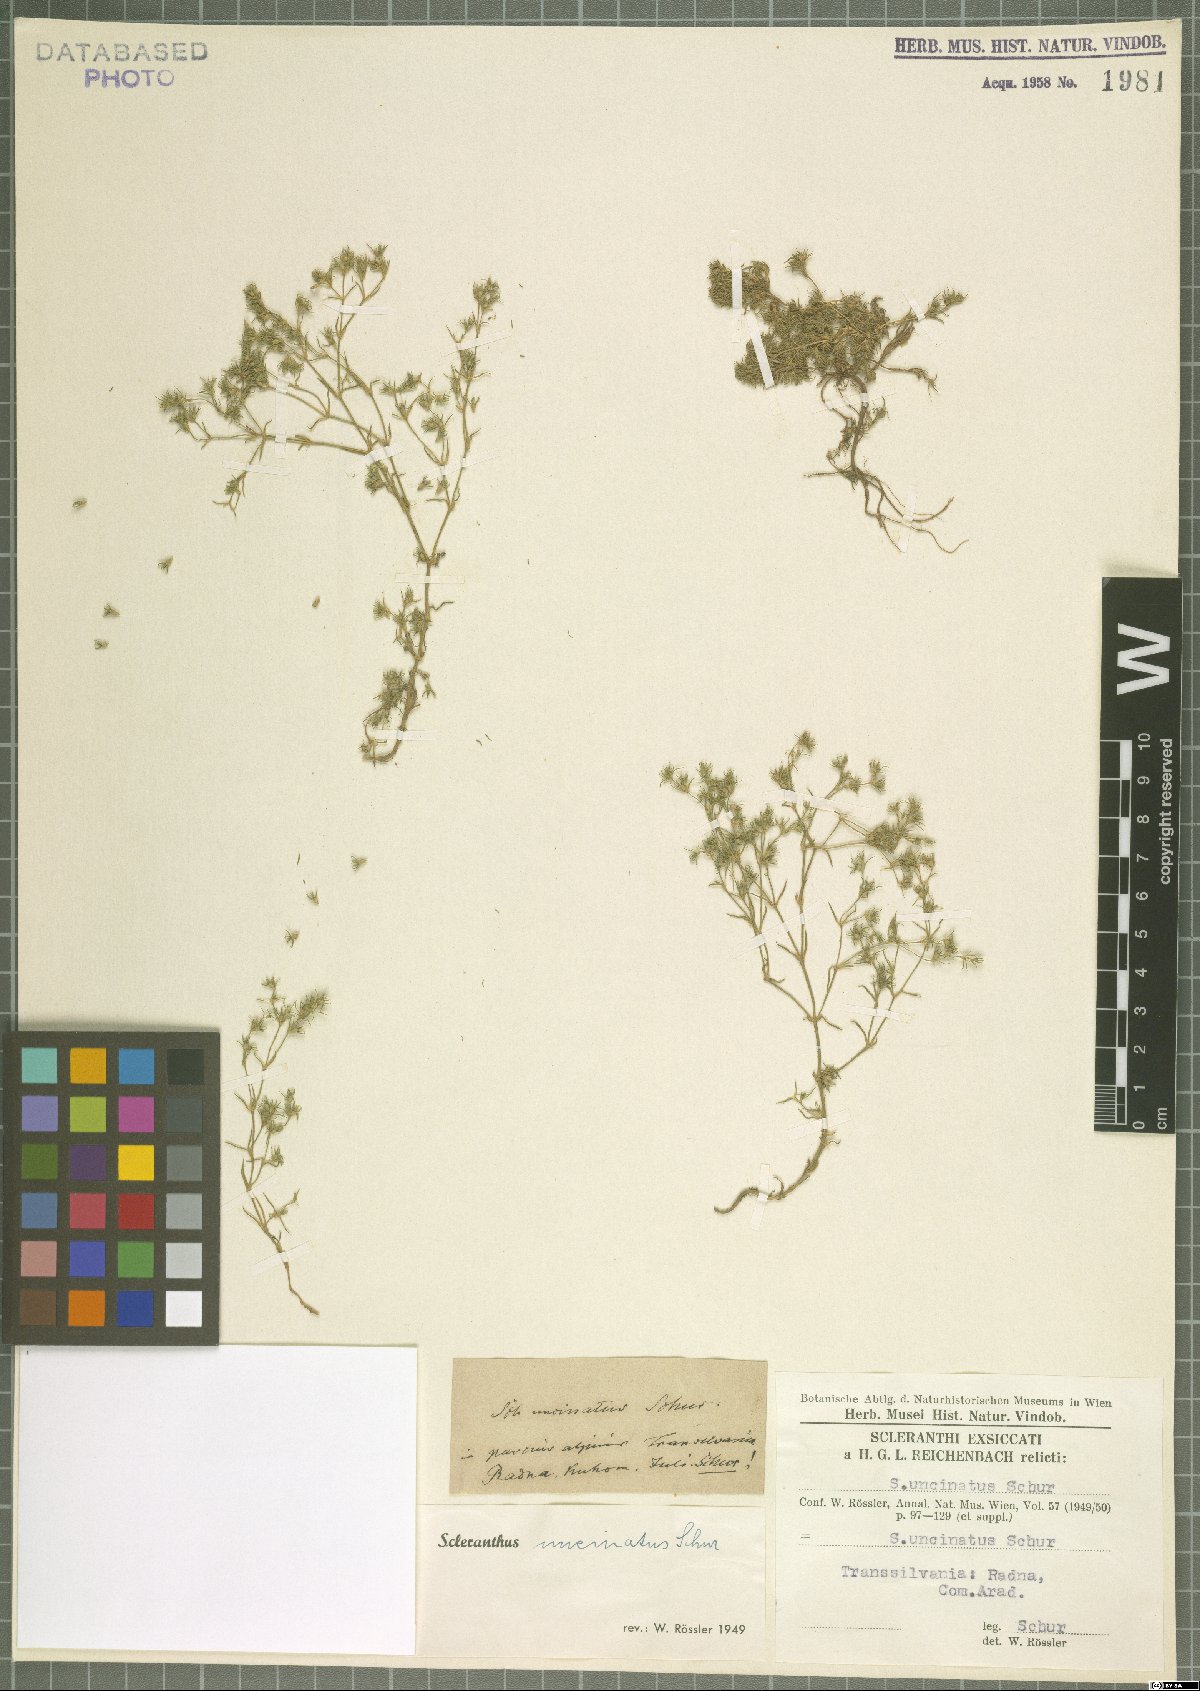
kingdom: Plantae
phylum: Tracheophyta
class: Magnoliopsida
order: Caryophyllales
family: Caryophyllaceae
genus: Scleranthus
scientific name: Scleranthus uncinatus
